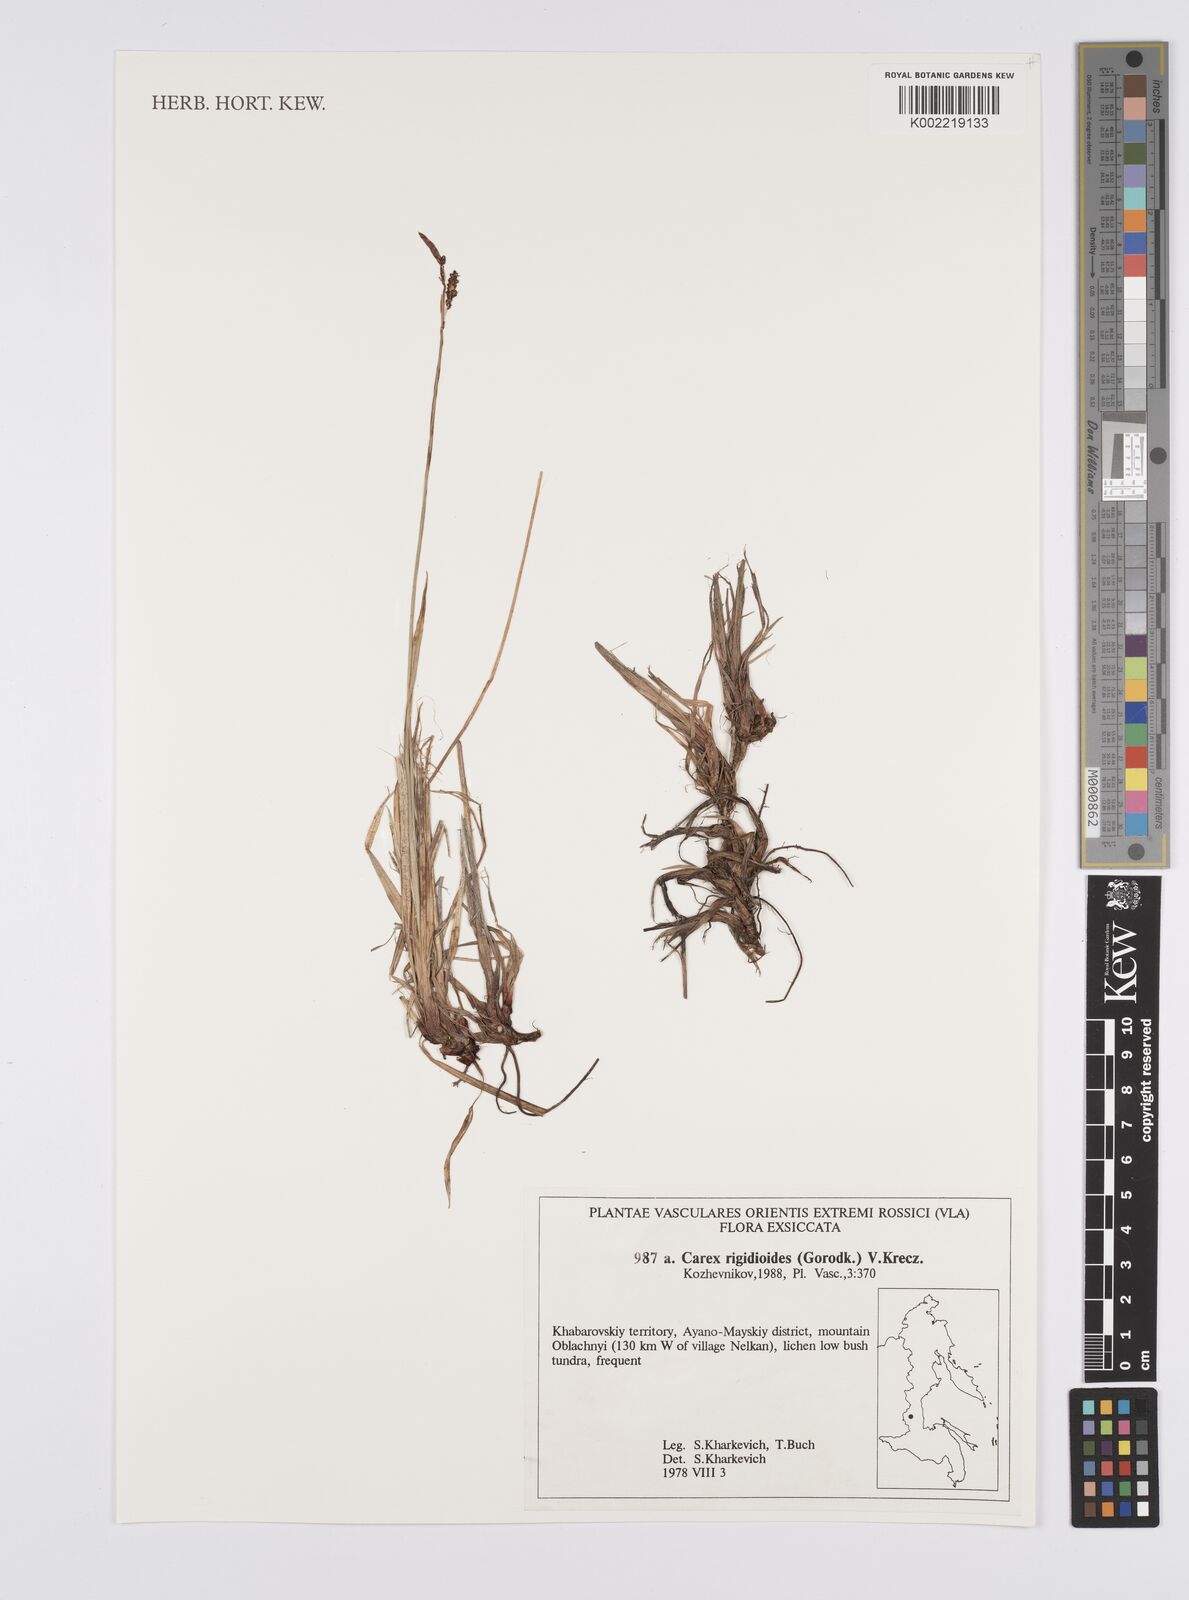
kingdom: Plantae
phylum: Tracheophyta
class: Liliopsida
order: Poales
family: Cyperaceae
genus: Carex
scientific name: Carex rigidioides
